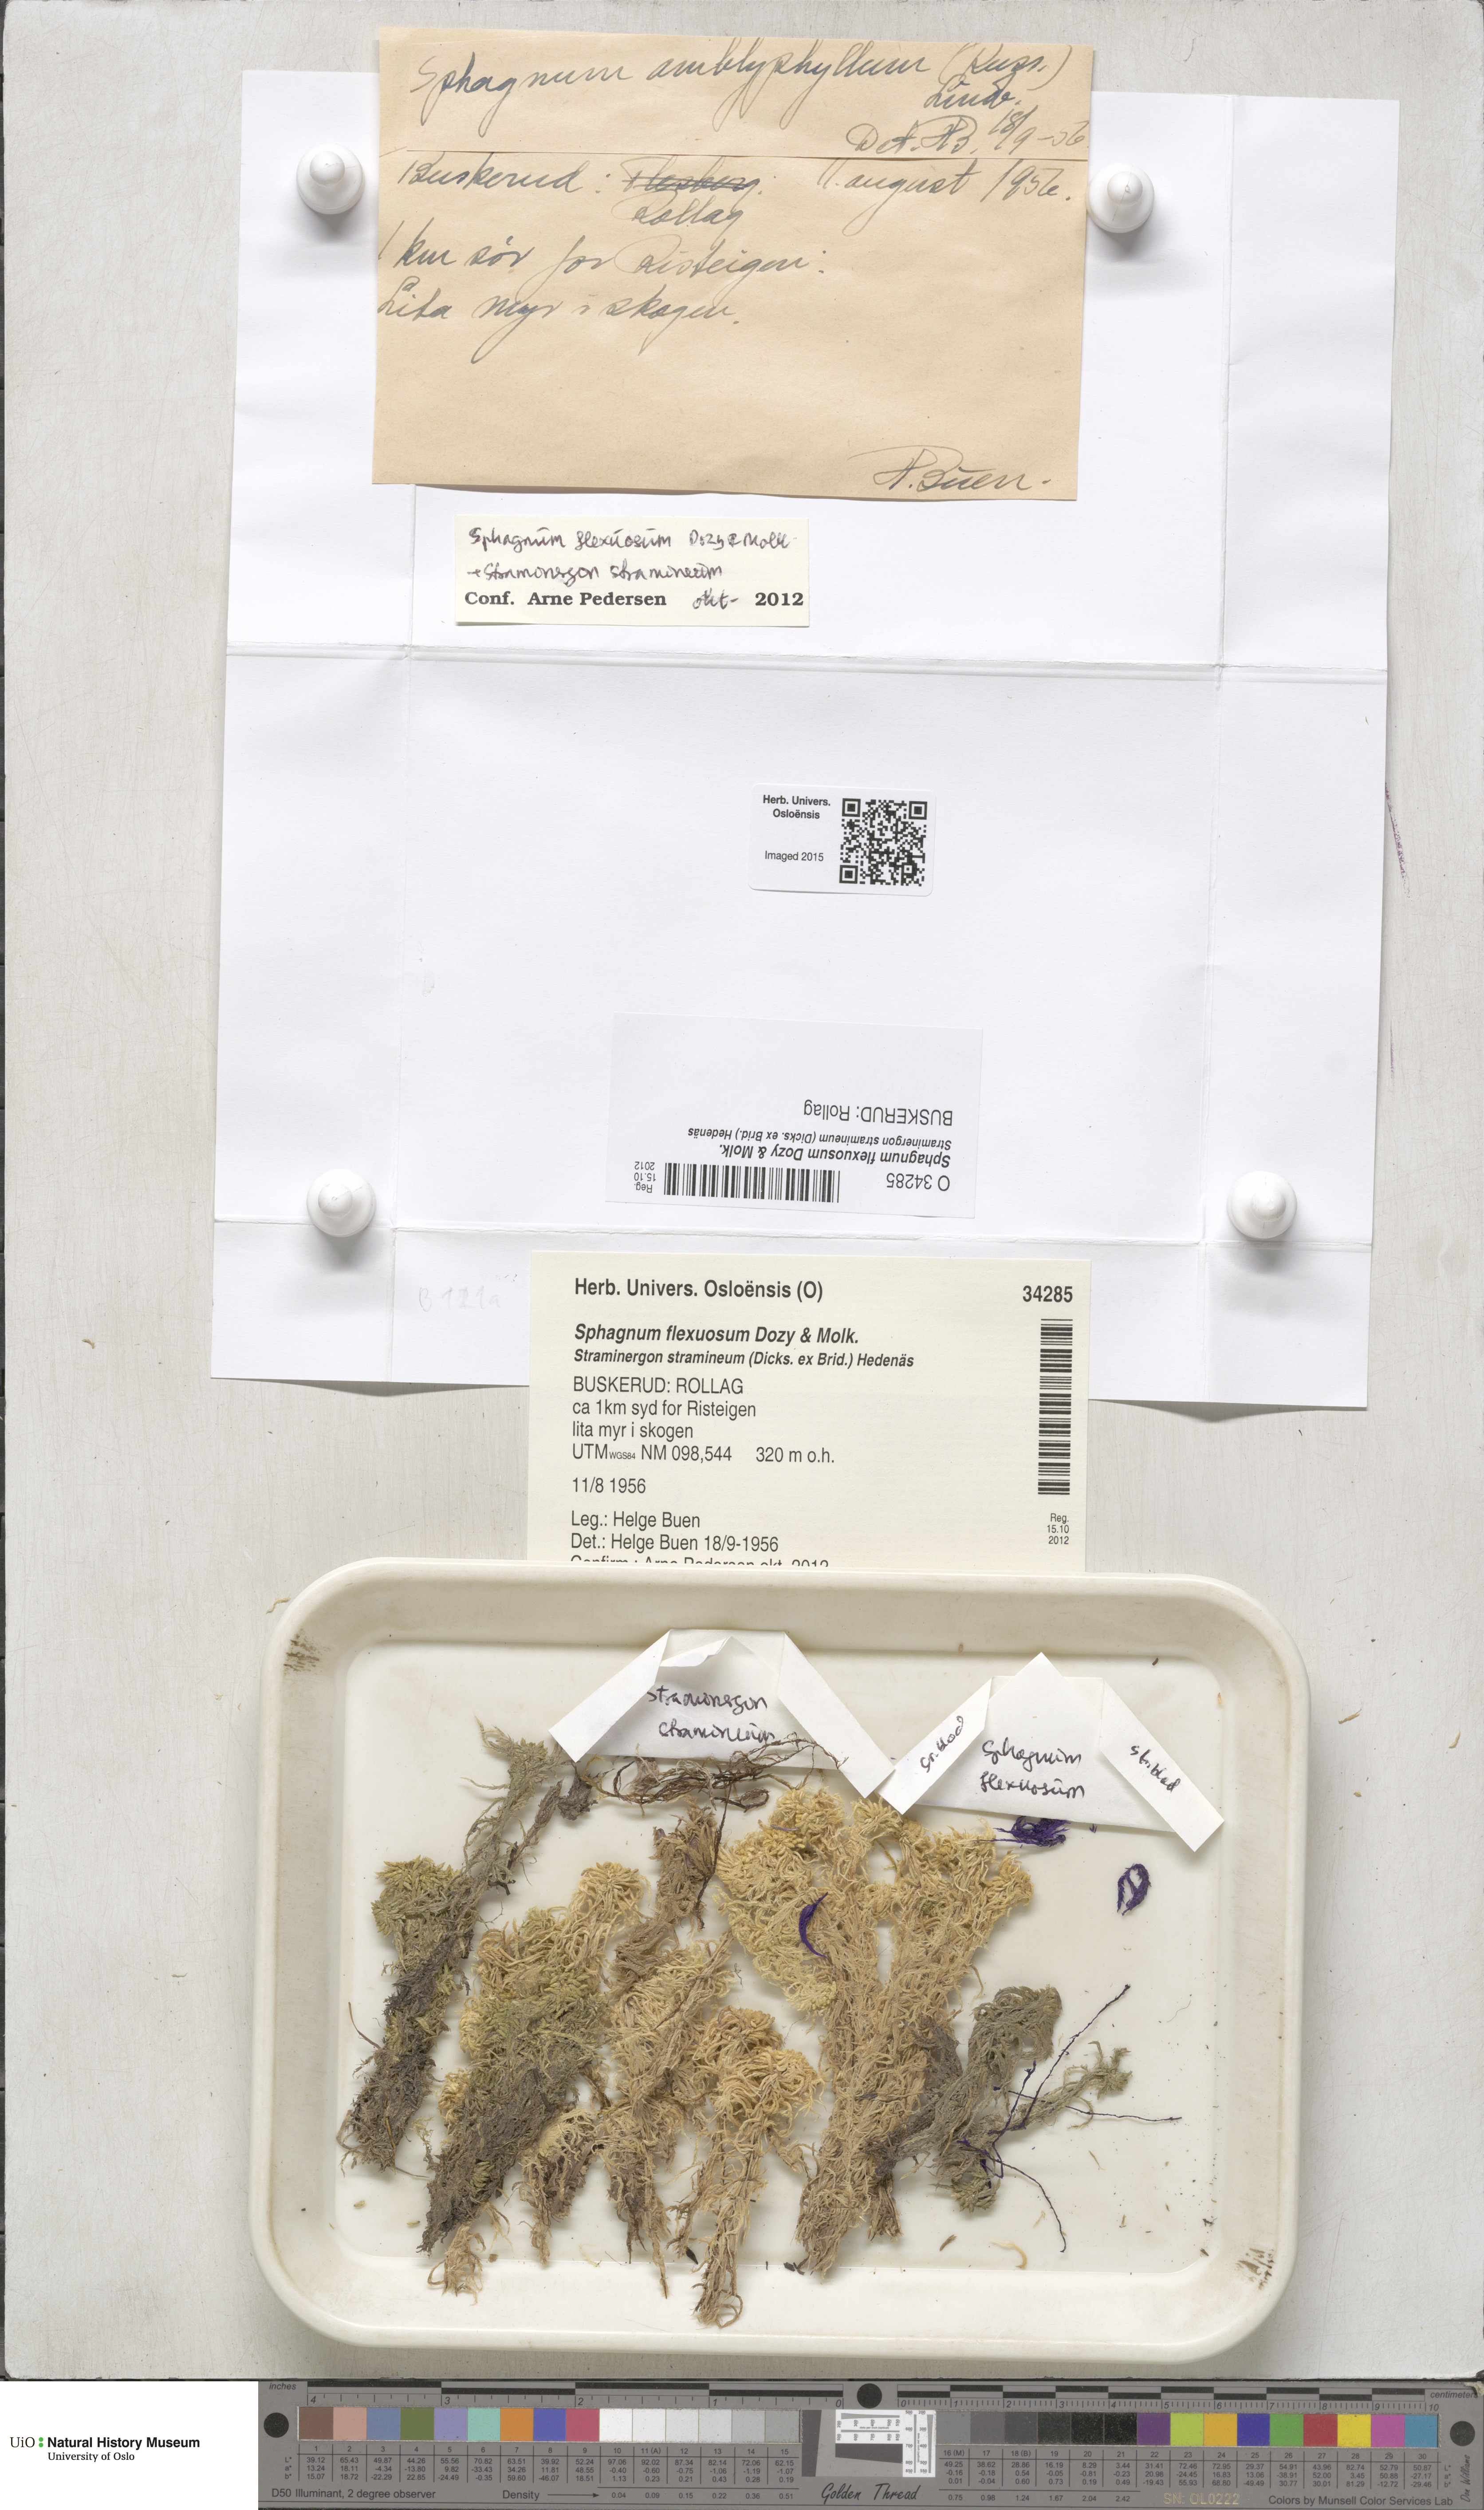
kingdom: Plantae
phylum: Bryophyta
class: Sphagnopsida
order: Sphagnales
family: Sphagnaceae
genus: Sphagnum
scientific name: Sphagnum flexuosum
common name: Flexible peat moss
